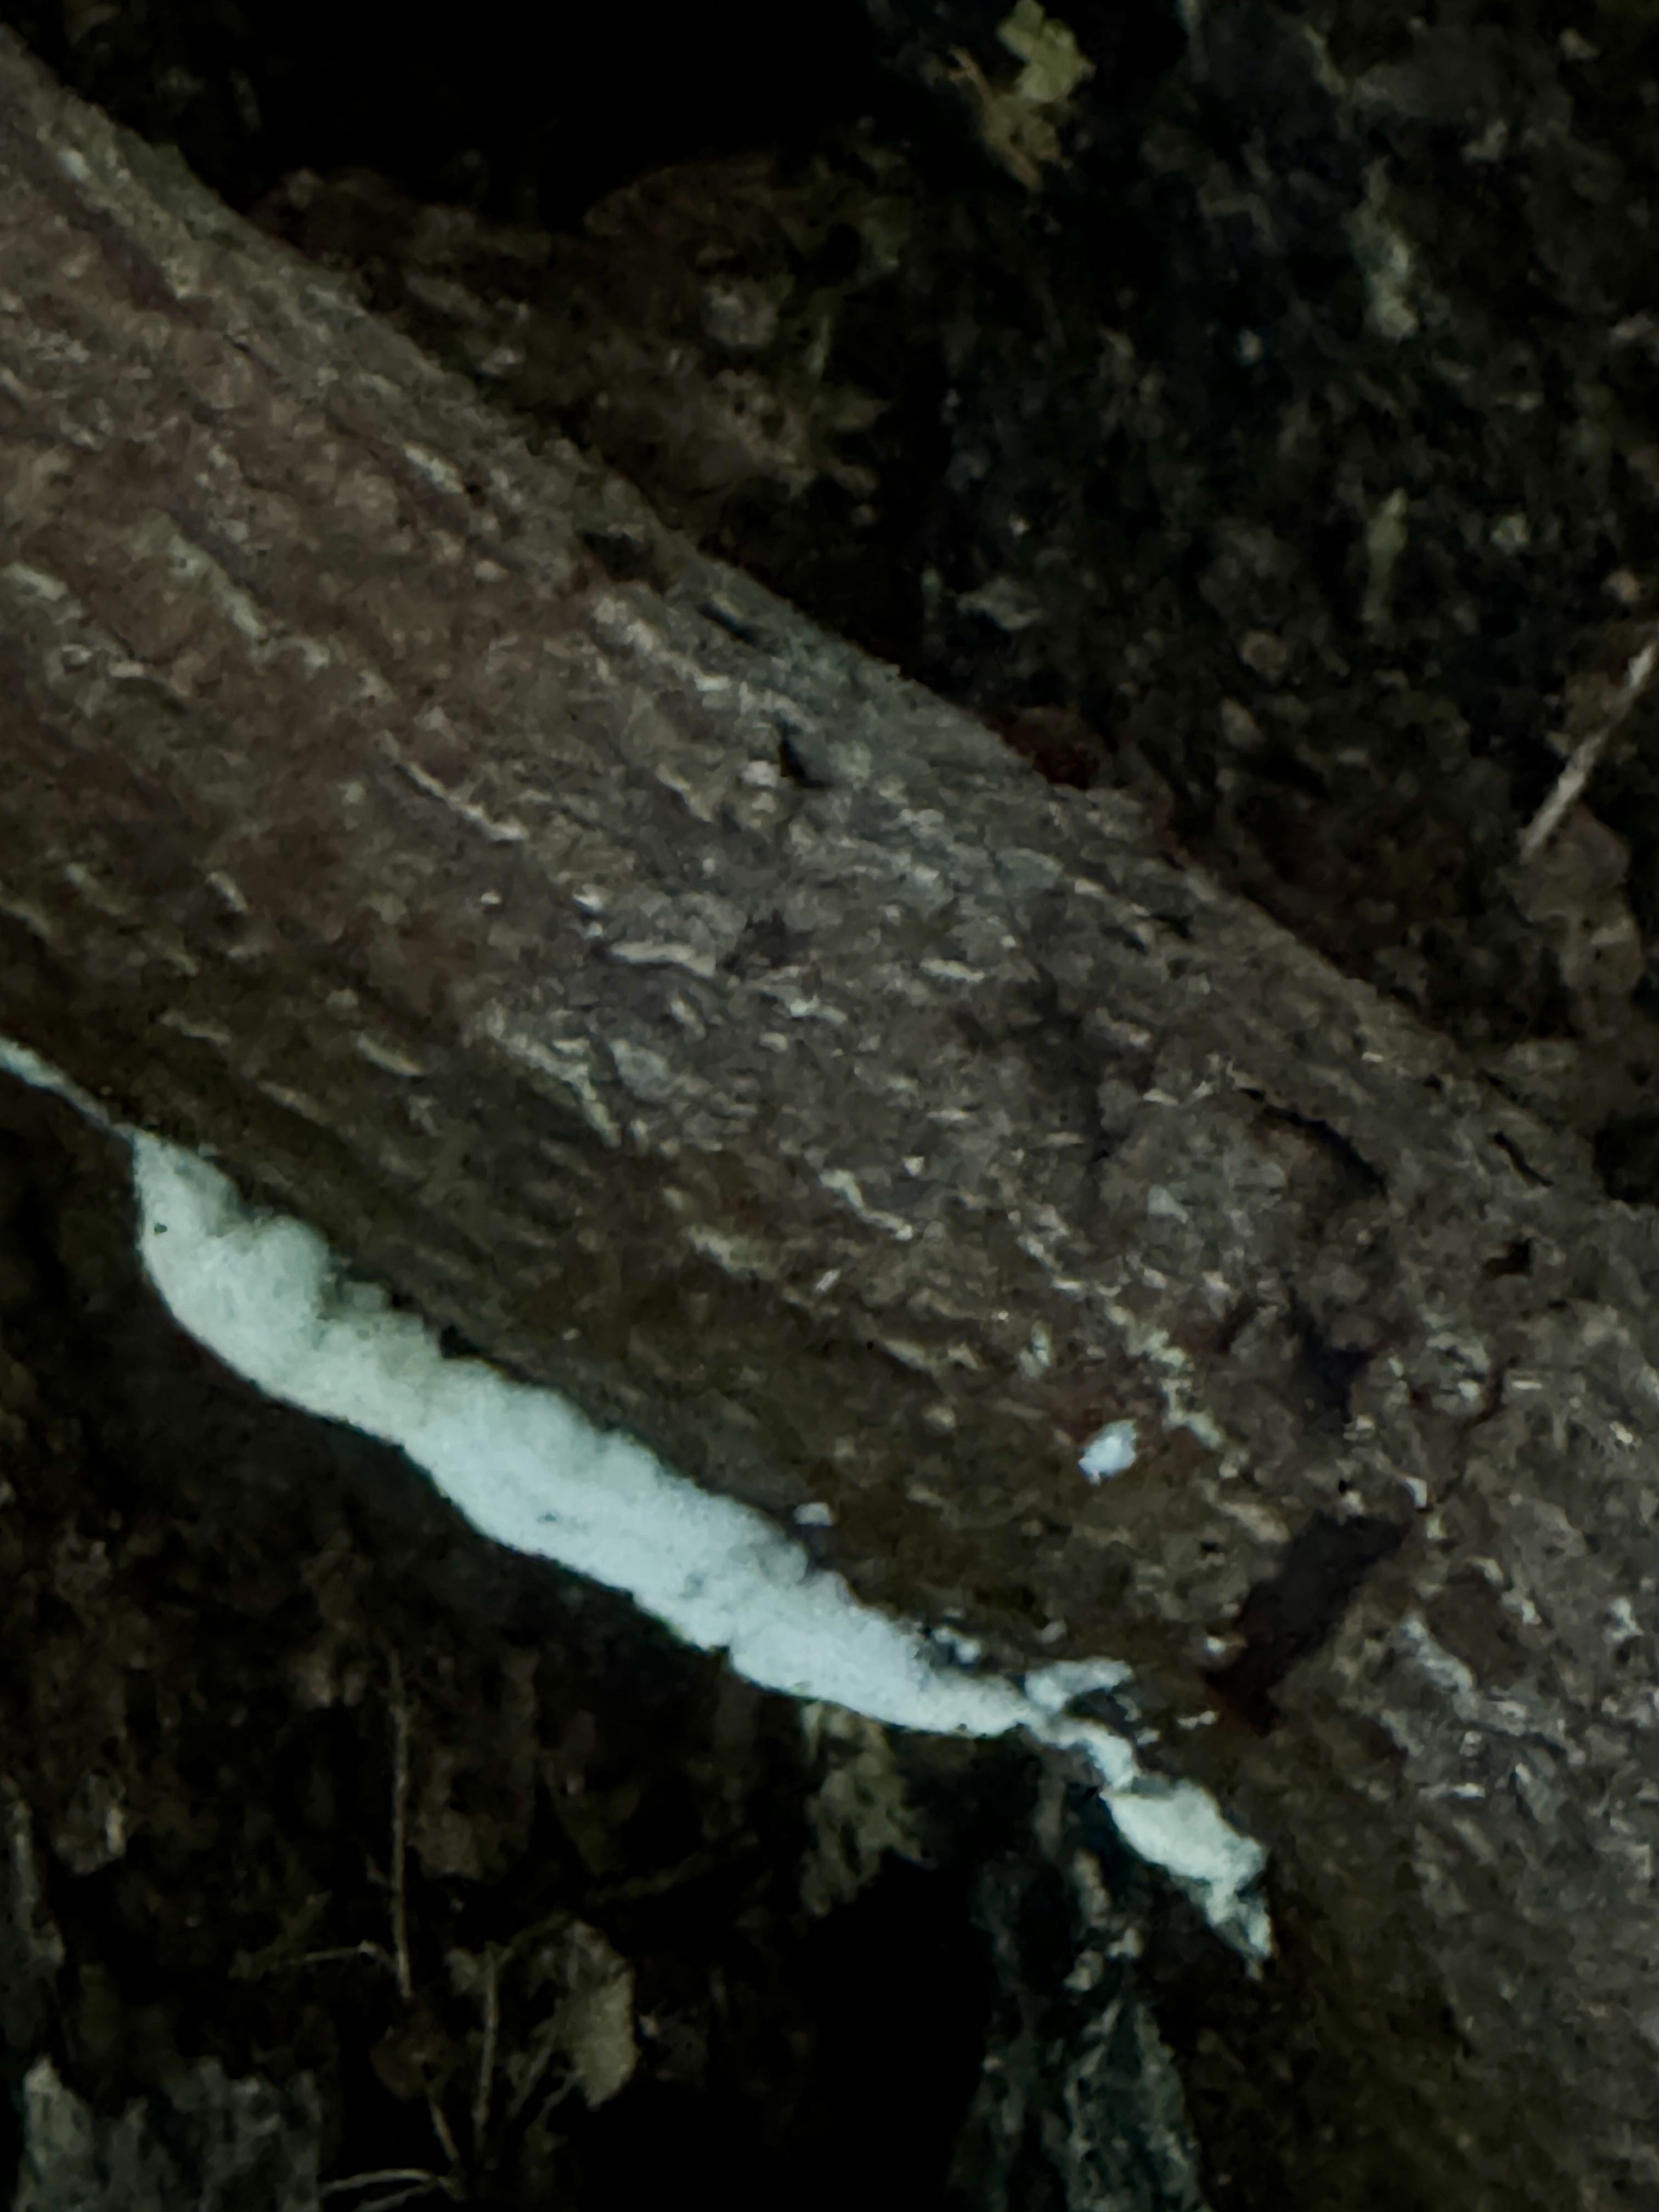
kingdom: Fungi
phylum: Basidiomycota
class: Agaricomycetes
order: Polyporales
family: Irpicaceae
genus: Byssomerulius
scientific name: Byssomerulius corium
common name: læder-åresvamp
